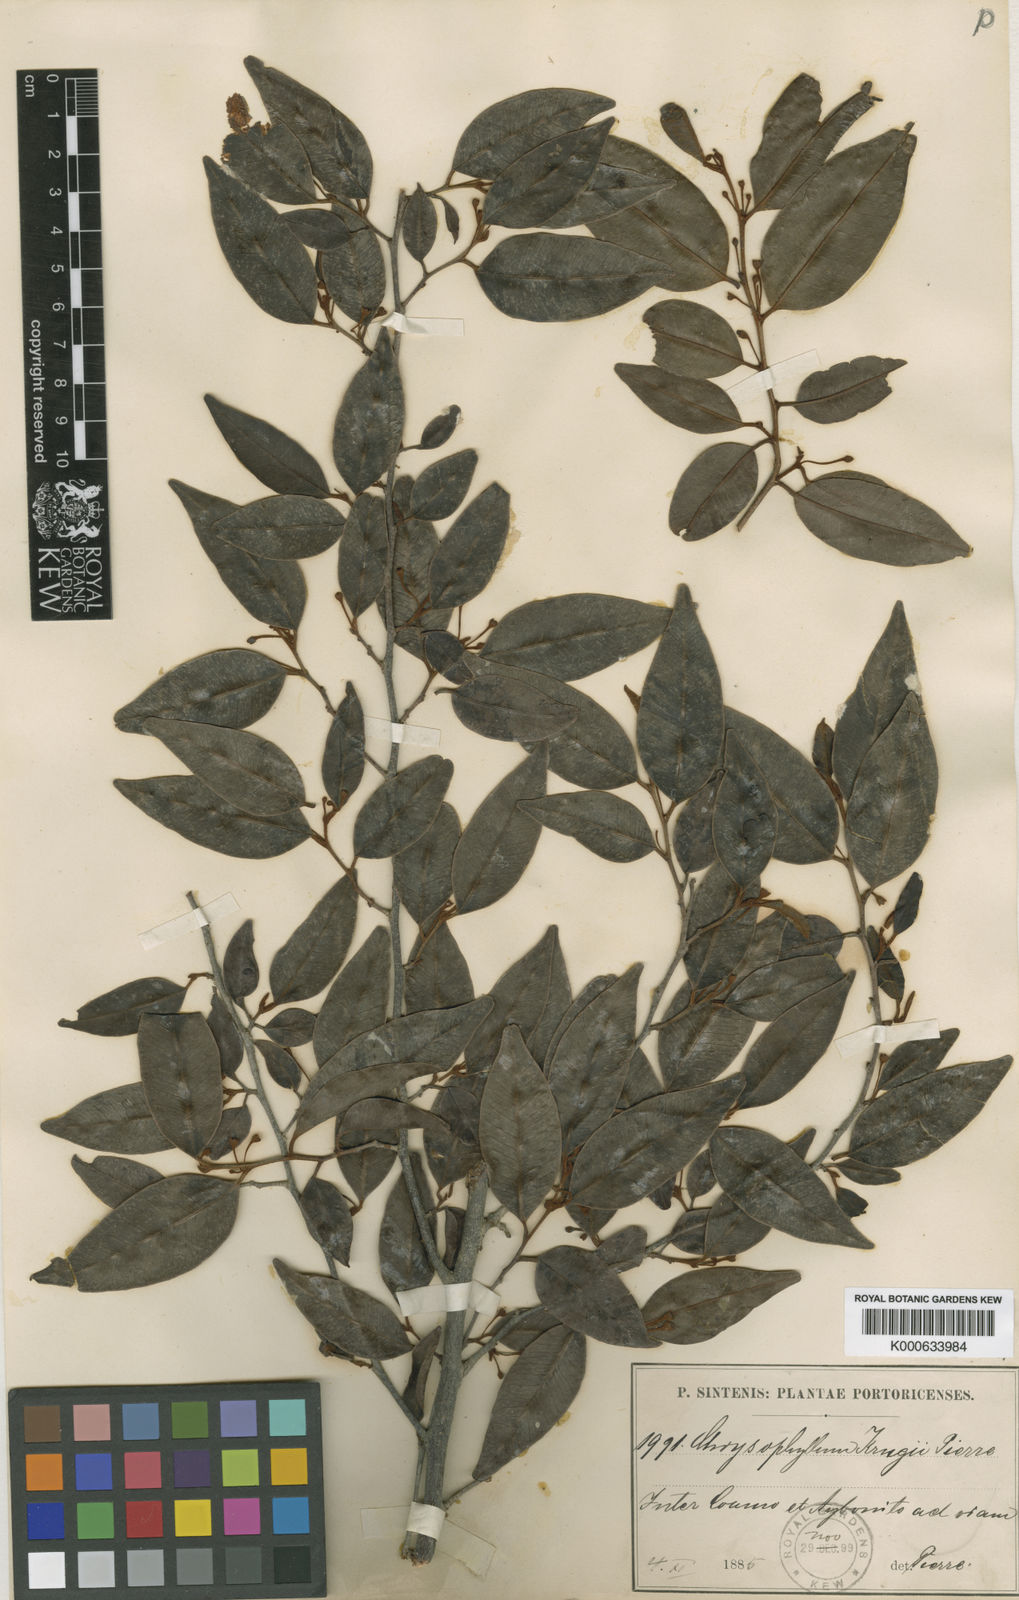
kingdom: Plantae
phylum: Tracheophyta
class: Magnoliopsida
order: Ericales
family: Sapotaceae
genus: Chrysophyllum
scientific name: Chrysophyllum pauciflorum
